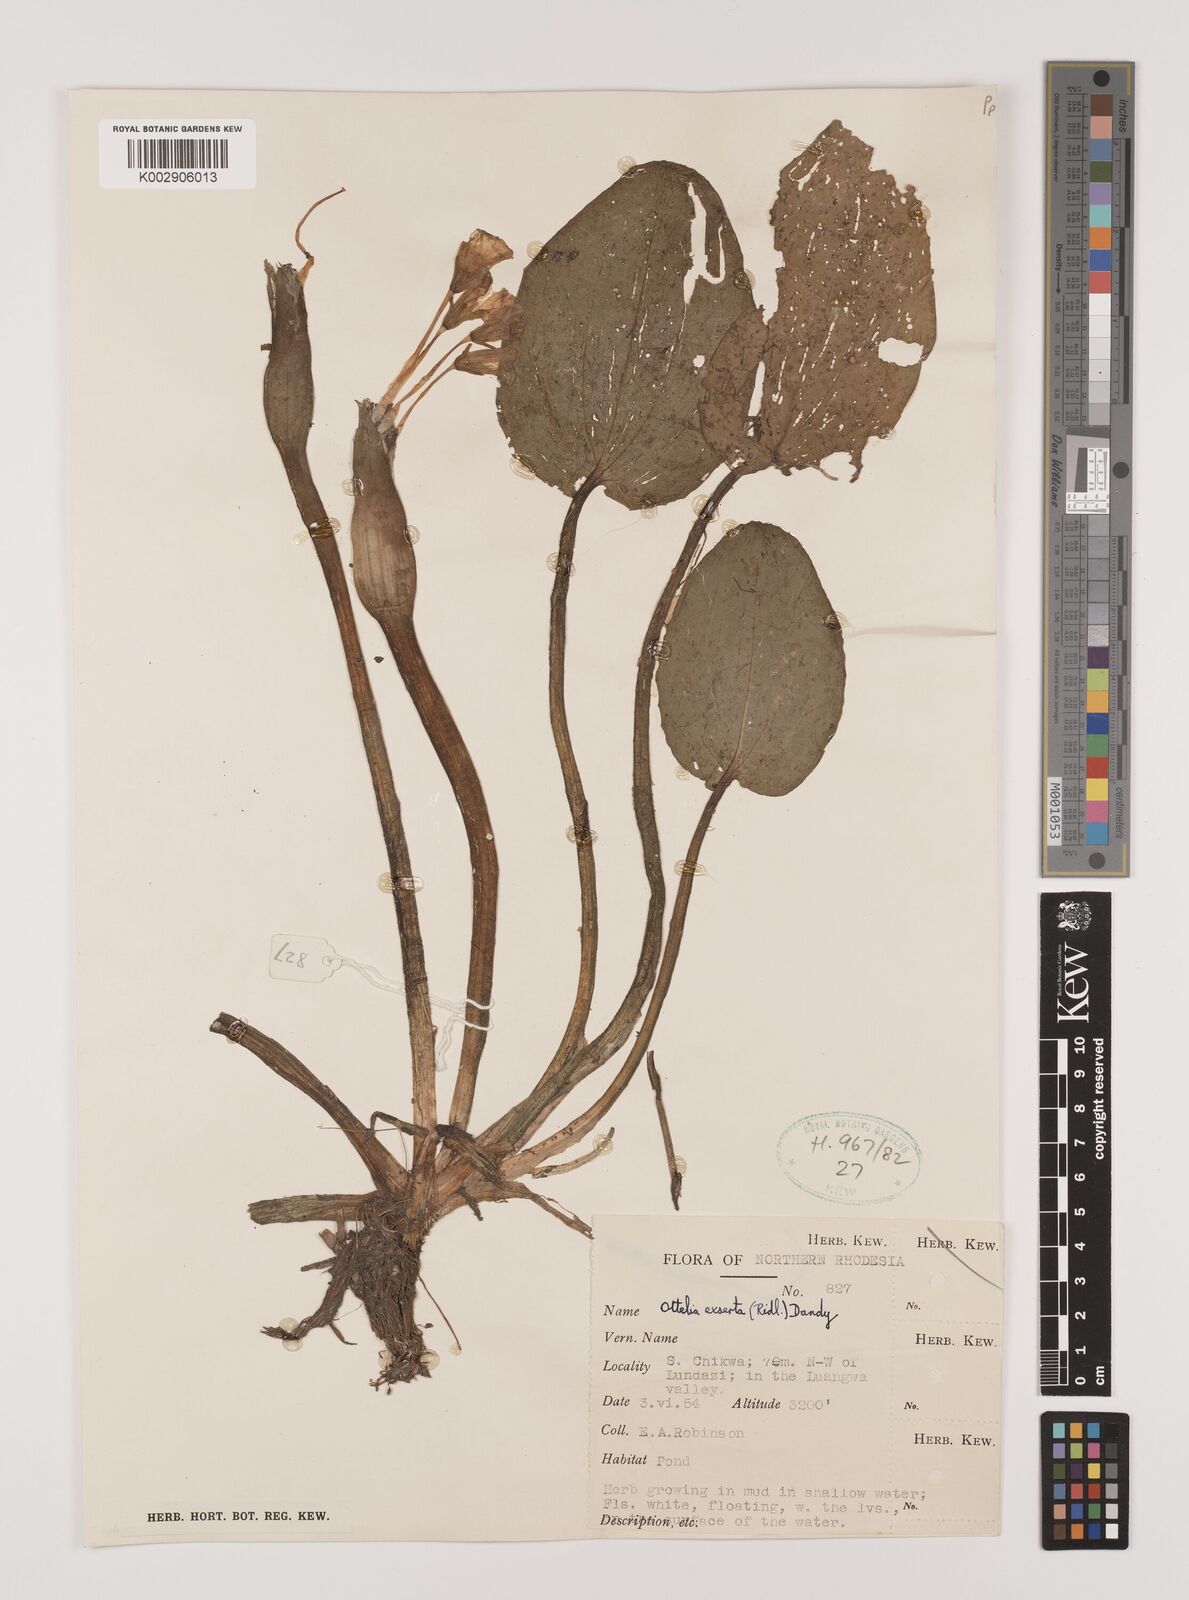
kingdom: Plantae
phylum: Tracheophyta
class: Liliopsida
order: Alismatales
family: Hydrocharitaceae
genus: Ottelia
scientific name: Ottelia exserta
